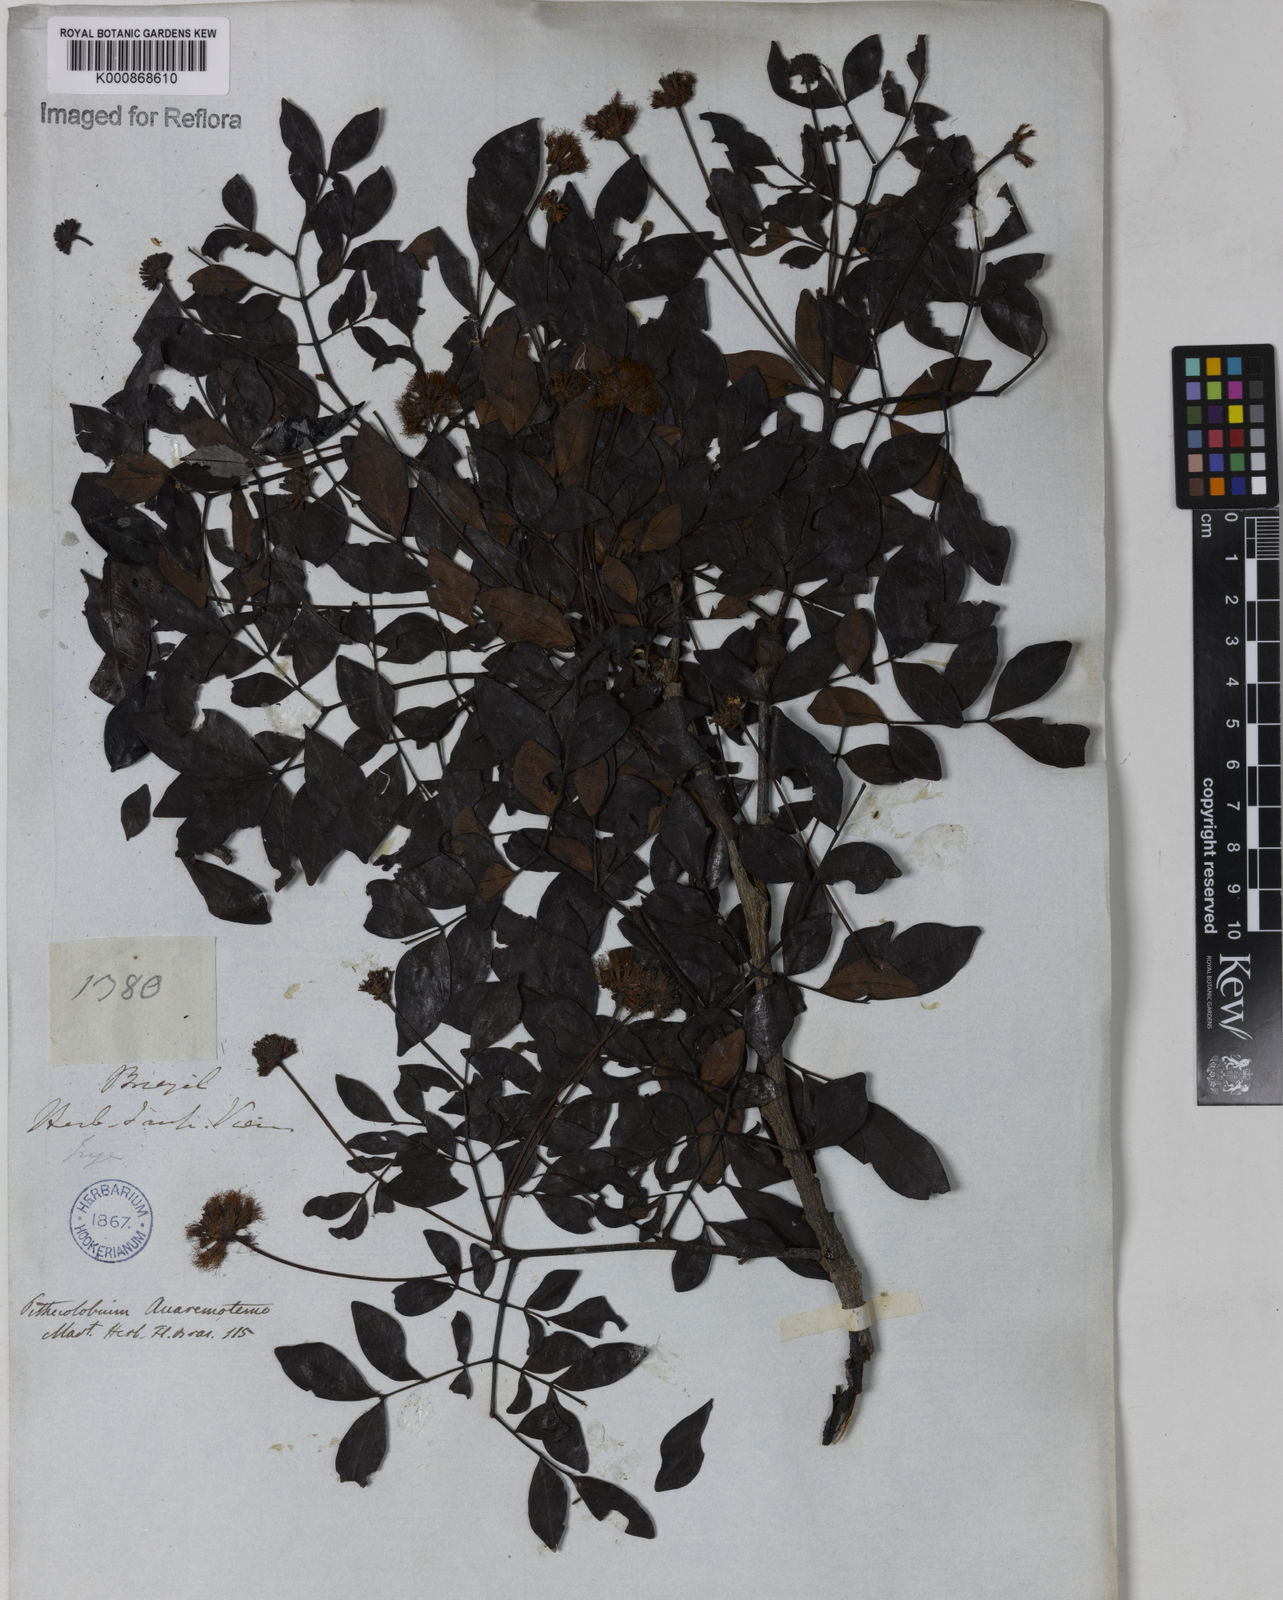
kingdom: Plantae
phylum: Tracheophyta
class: Magnoliopsida
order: Fabales
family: Fabaceae
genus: Abarema
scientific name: Abarema
